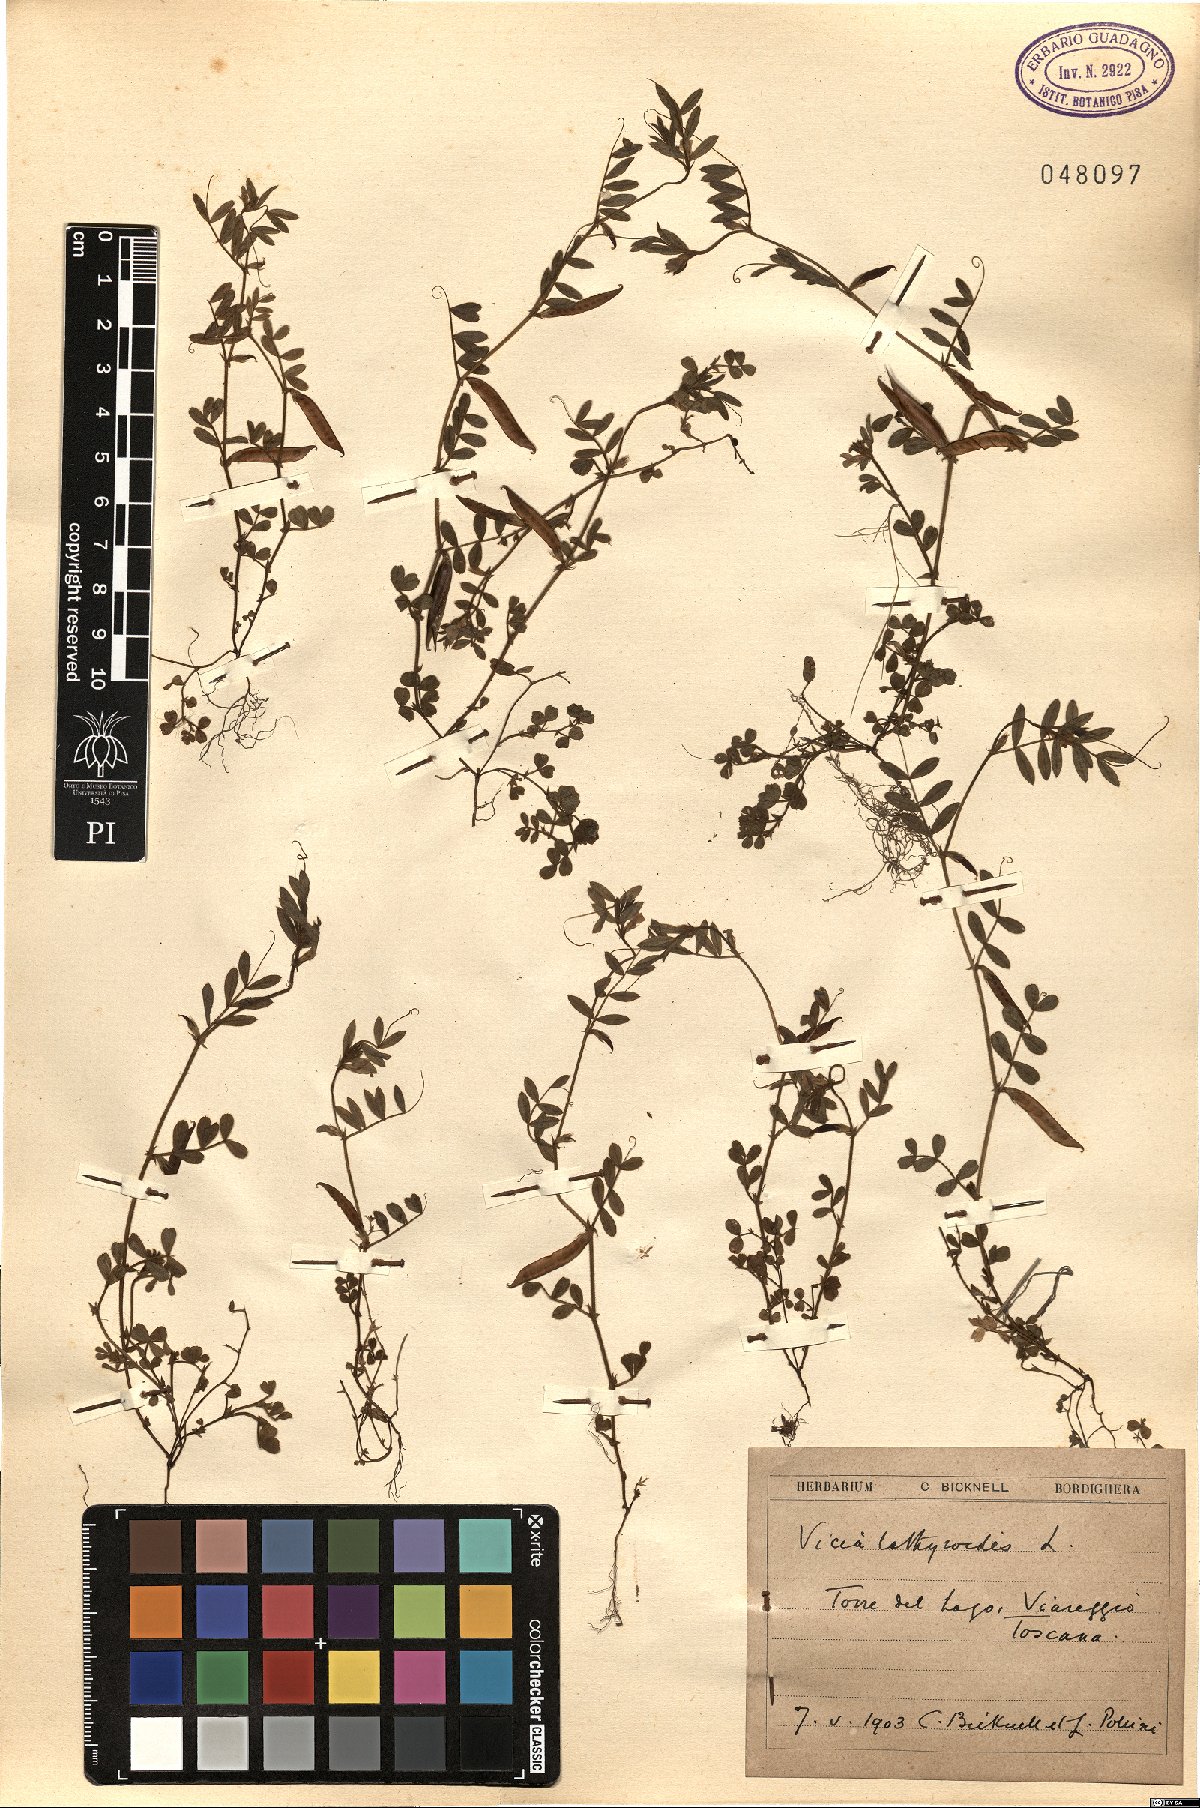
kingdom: Plantae
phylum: Tracheophyta
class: Magnoliopsida
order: Fabales
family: Fabaceae
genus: Vicia
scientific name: Vicia lathyroides
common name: Spring vetch
